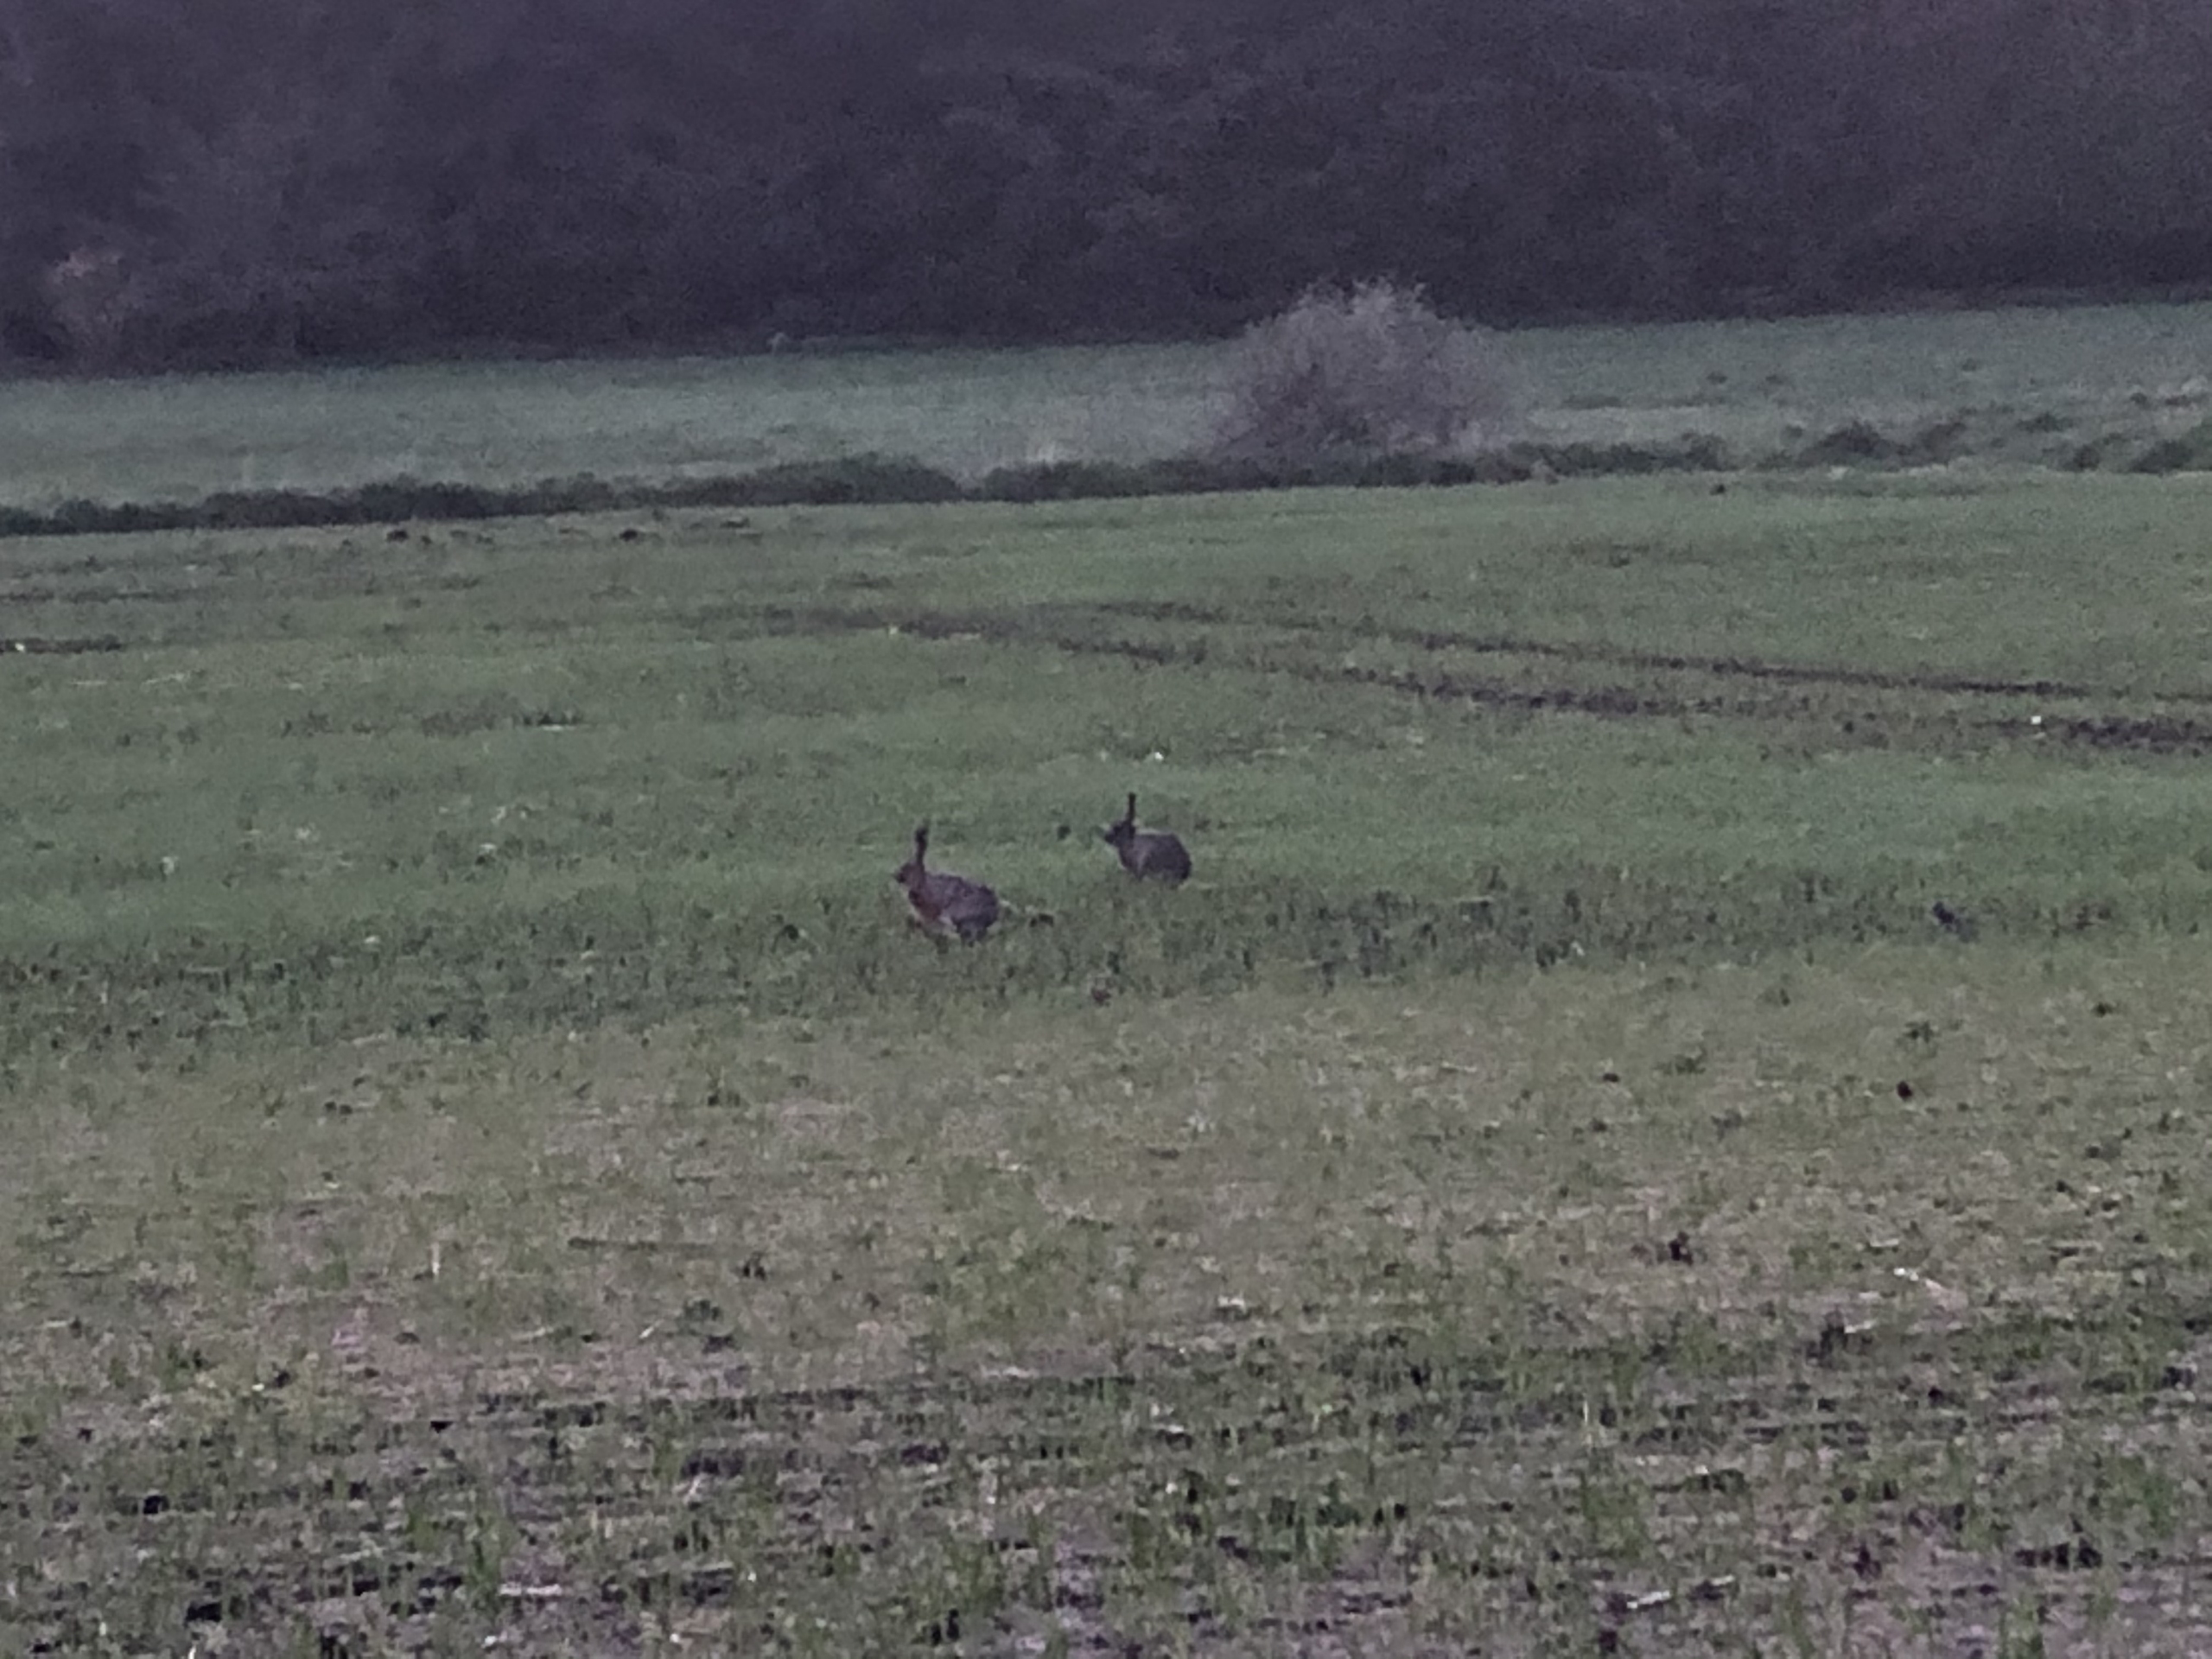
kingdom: Animalia
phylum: Chordata
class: Mammalia
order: Lagomorpha
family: Leporidae
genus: Lepus
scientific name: Lepus europaeus
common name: Hare
